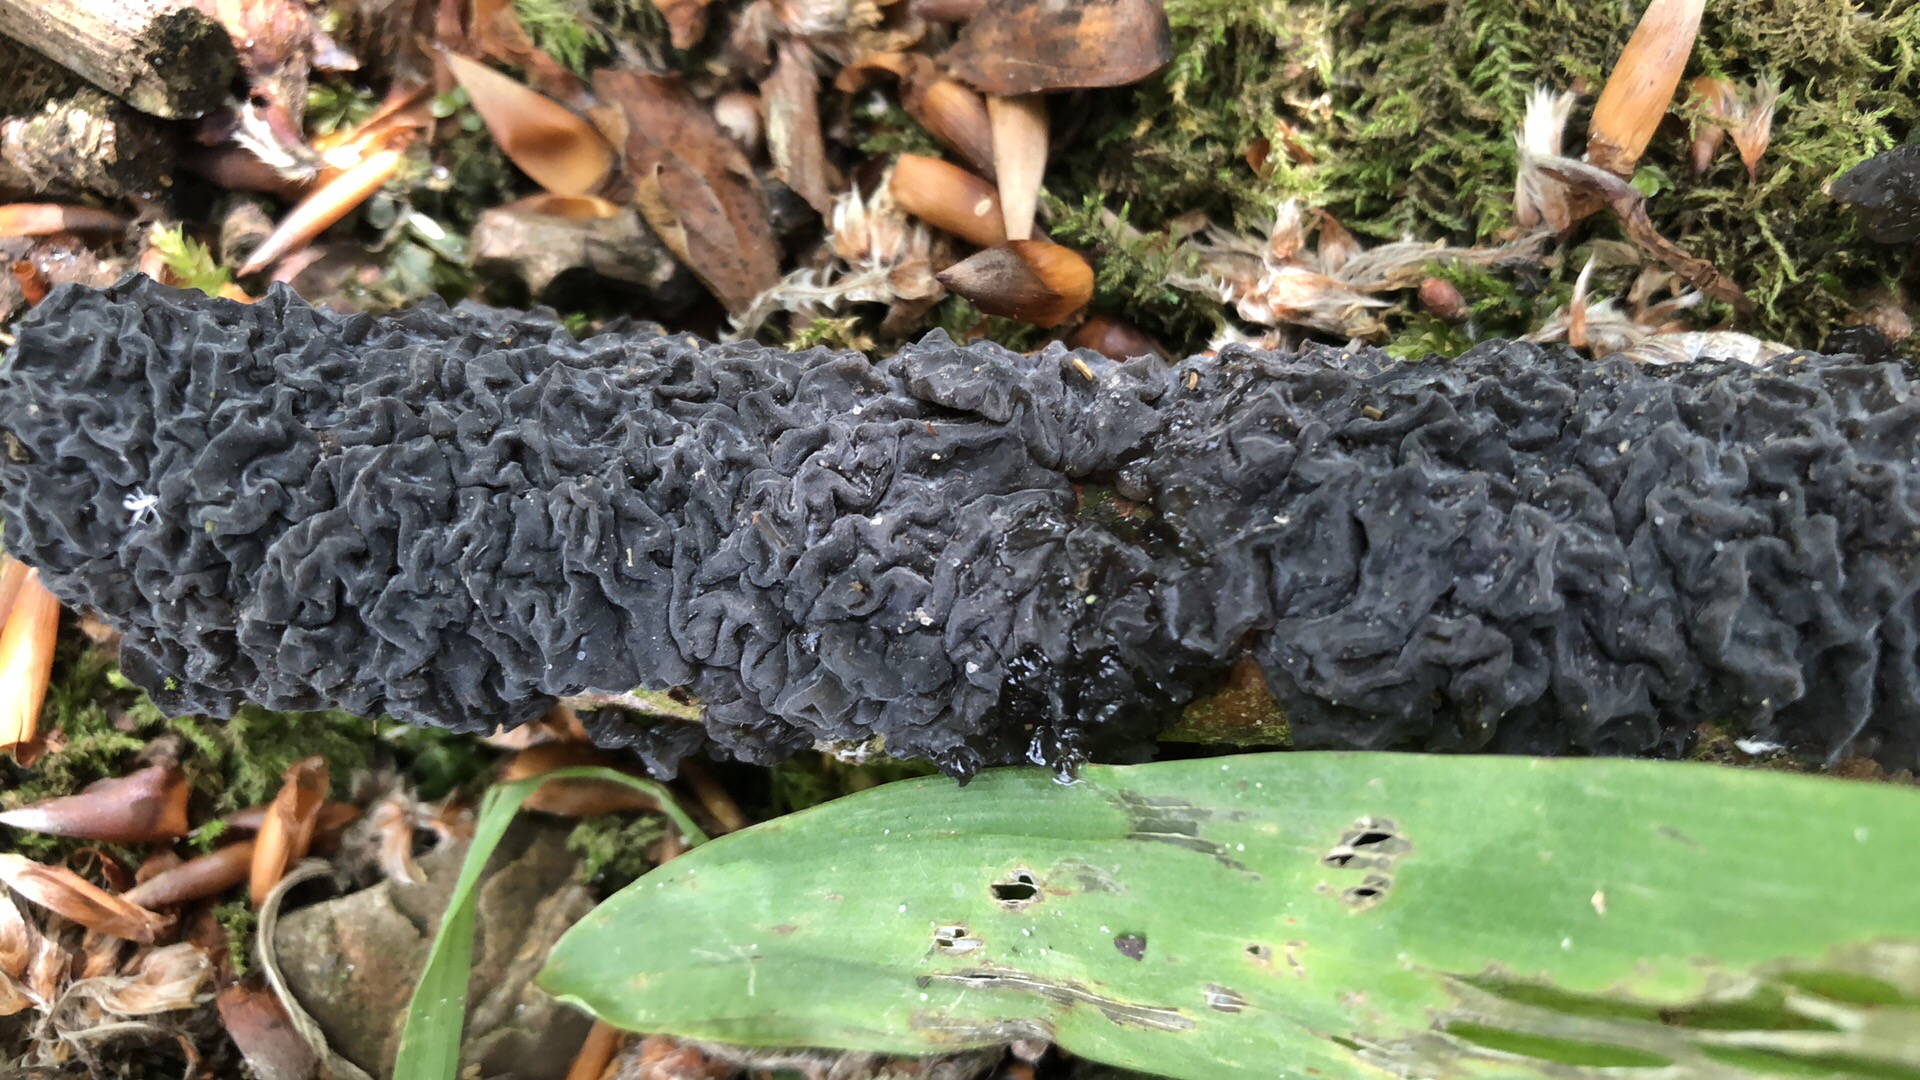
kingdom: Fungi
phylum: Basidiomycota
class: Agaricomycetes
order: Auriculariales
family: Auriculariaceae
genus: Exidia
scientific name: Exidia glandulosa
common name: ege-bævretop
